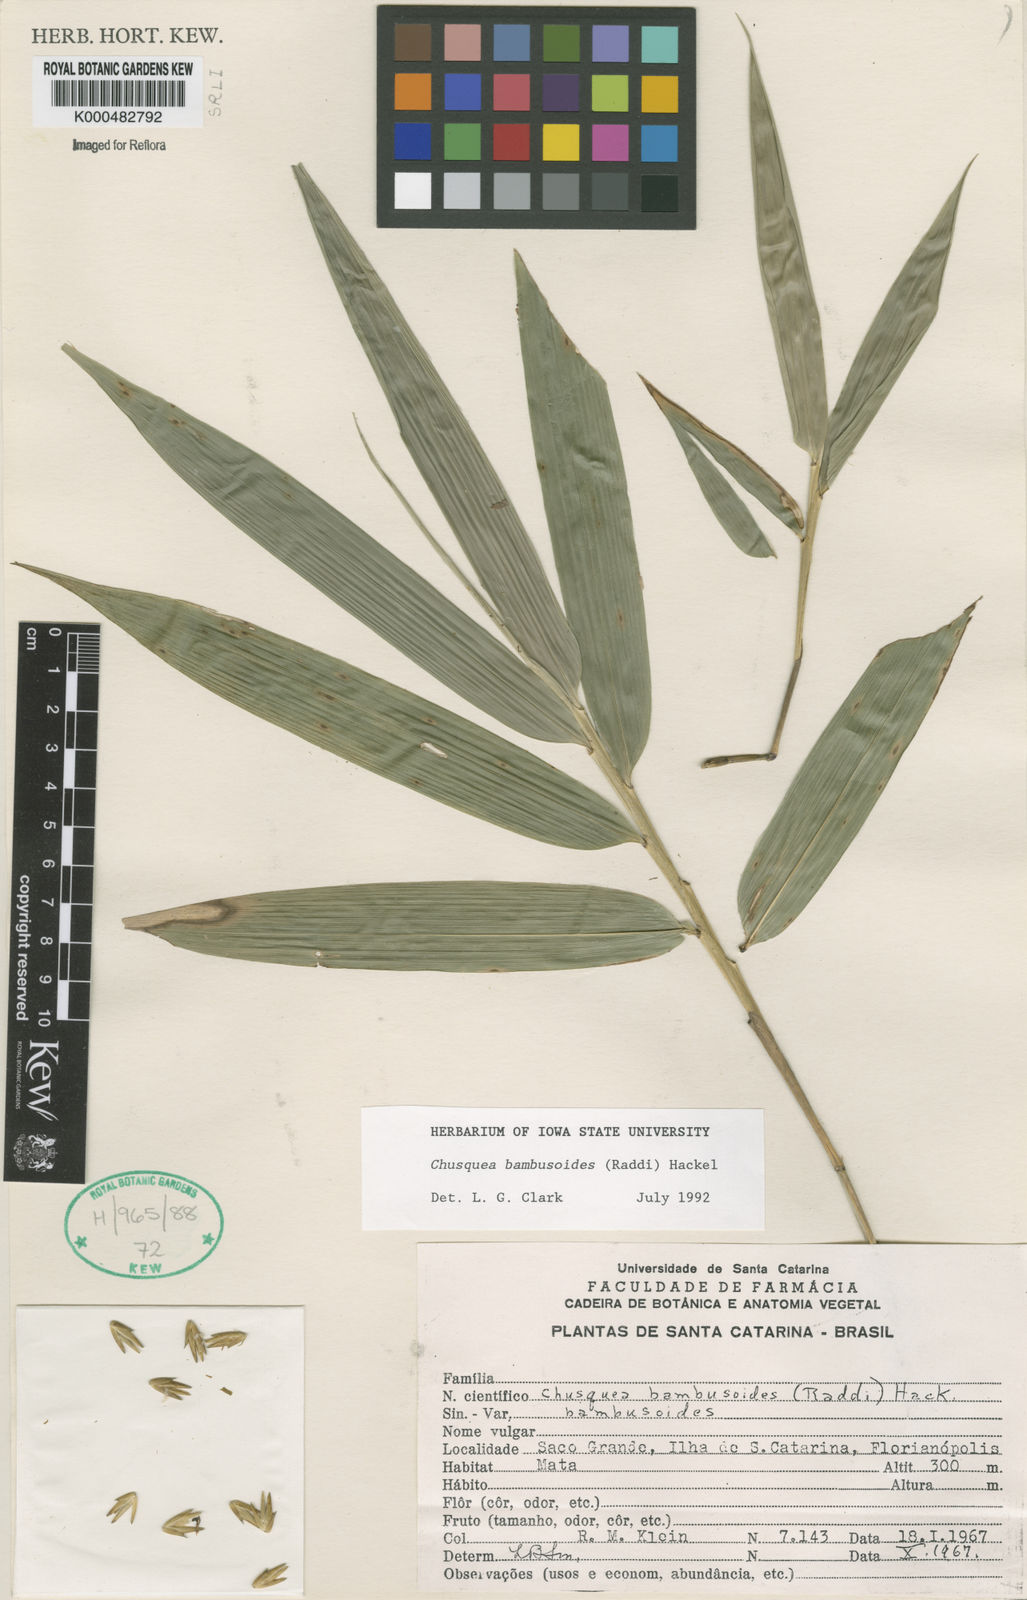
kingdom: Plantae
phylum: Tracheophyta
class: Liliopsida
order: Poales
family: Poaceae
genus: Chusquea
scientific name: Chusquea bambusoides
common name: Brazil scrambling bamboo
